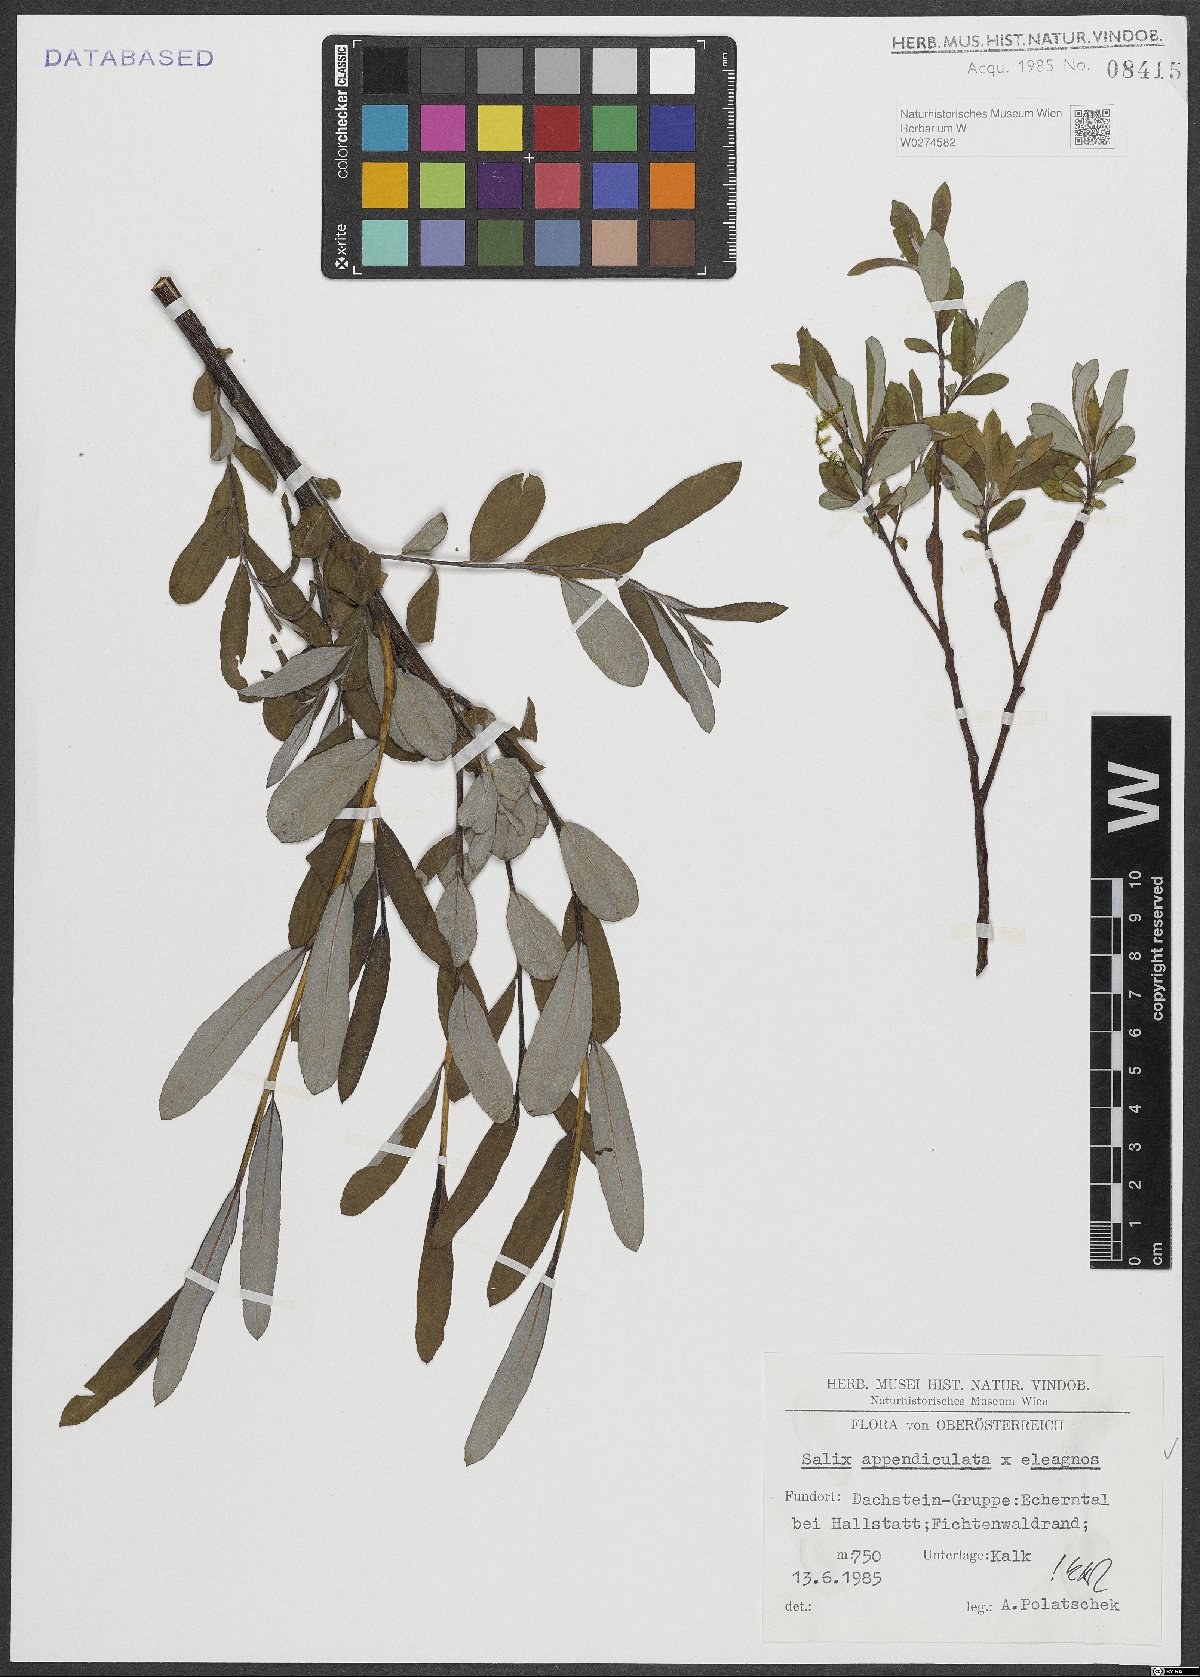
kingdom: Plantae
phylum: Tracheophyta
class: Magnoliopsida
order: Malpighiales
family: Salicaceae
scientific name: Salicaceae
